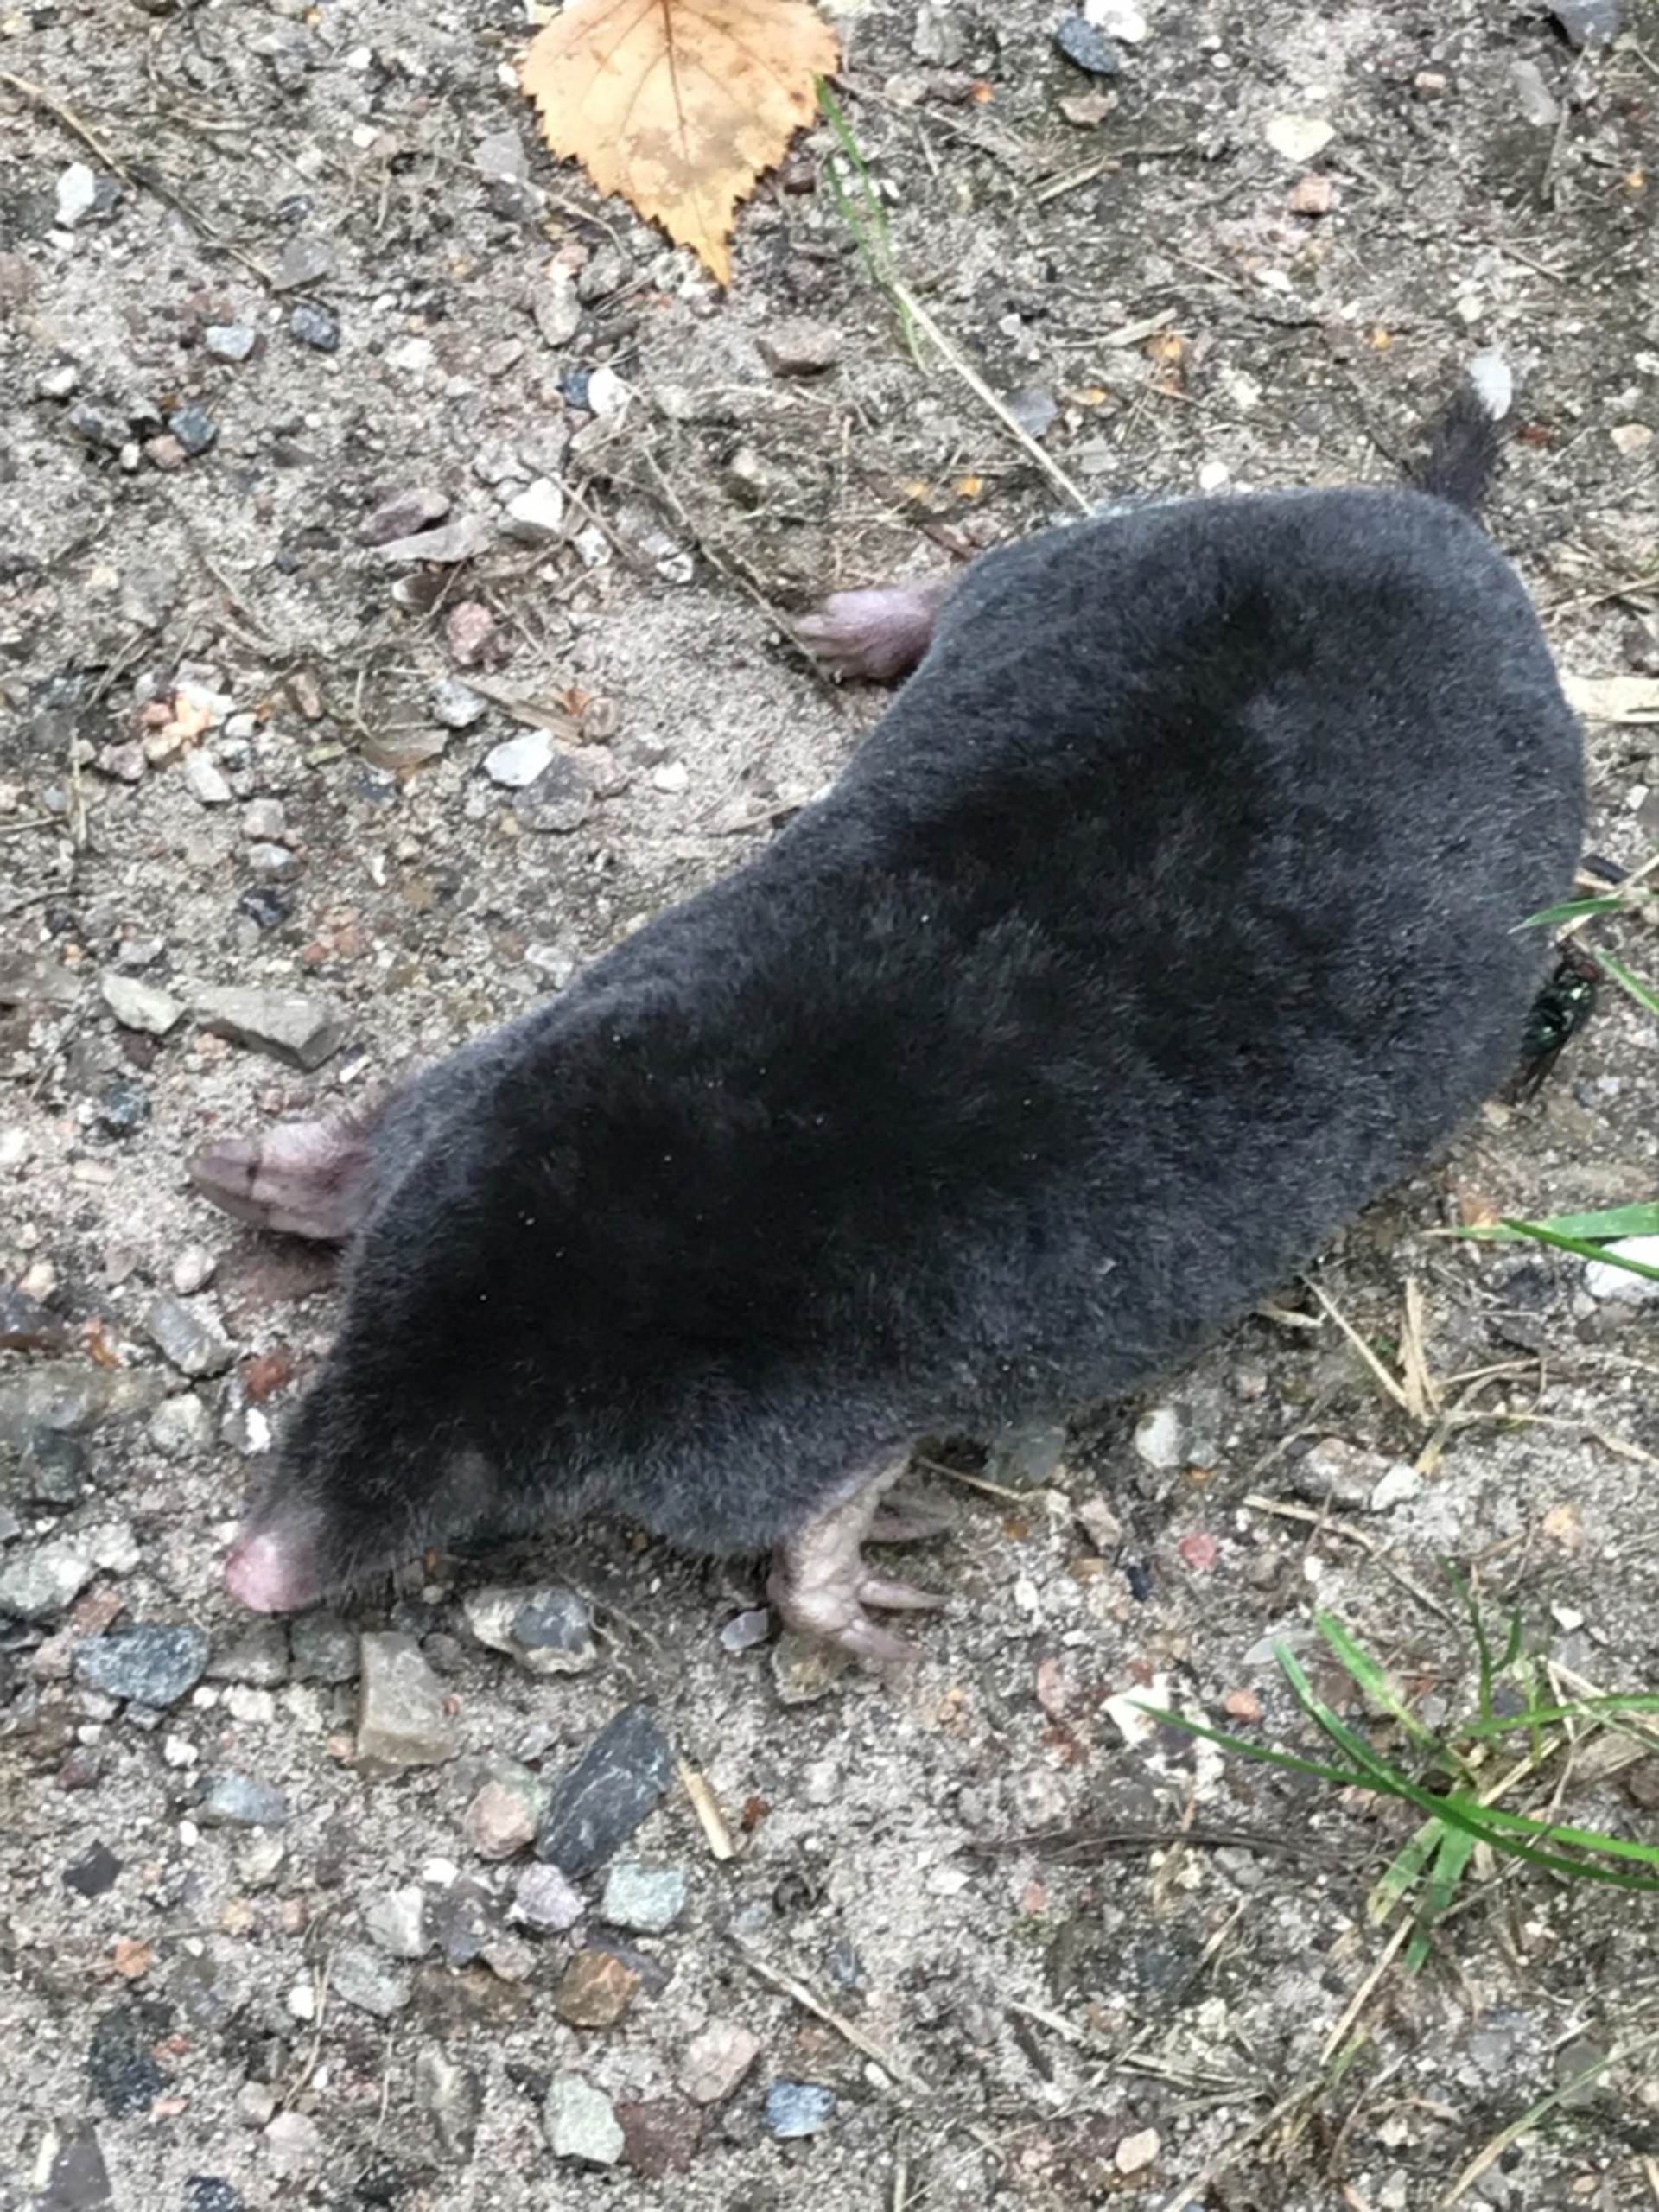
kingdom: Animalia
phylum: Chordata
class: Mammalia
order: Soricomorpha
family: Talpidae
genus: Talpa
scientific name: Talpa europaea
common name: Muldvarp
